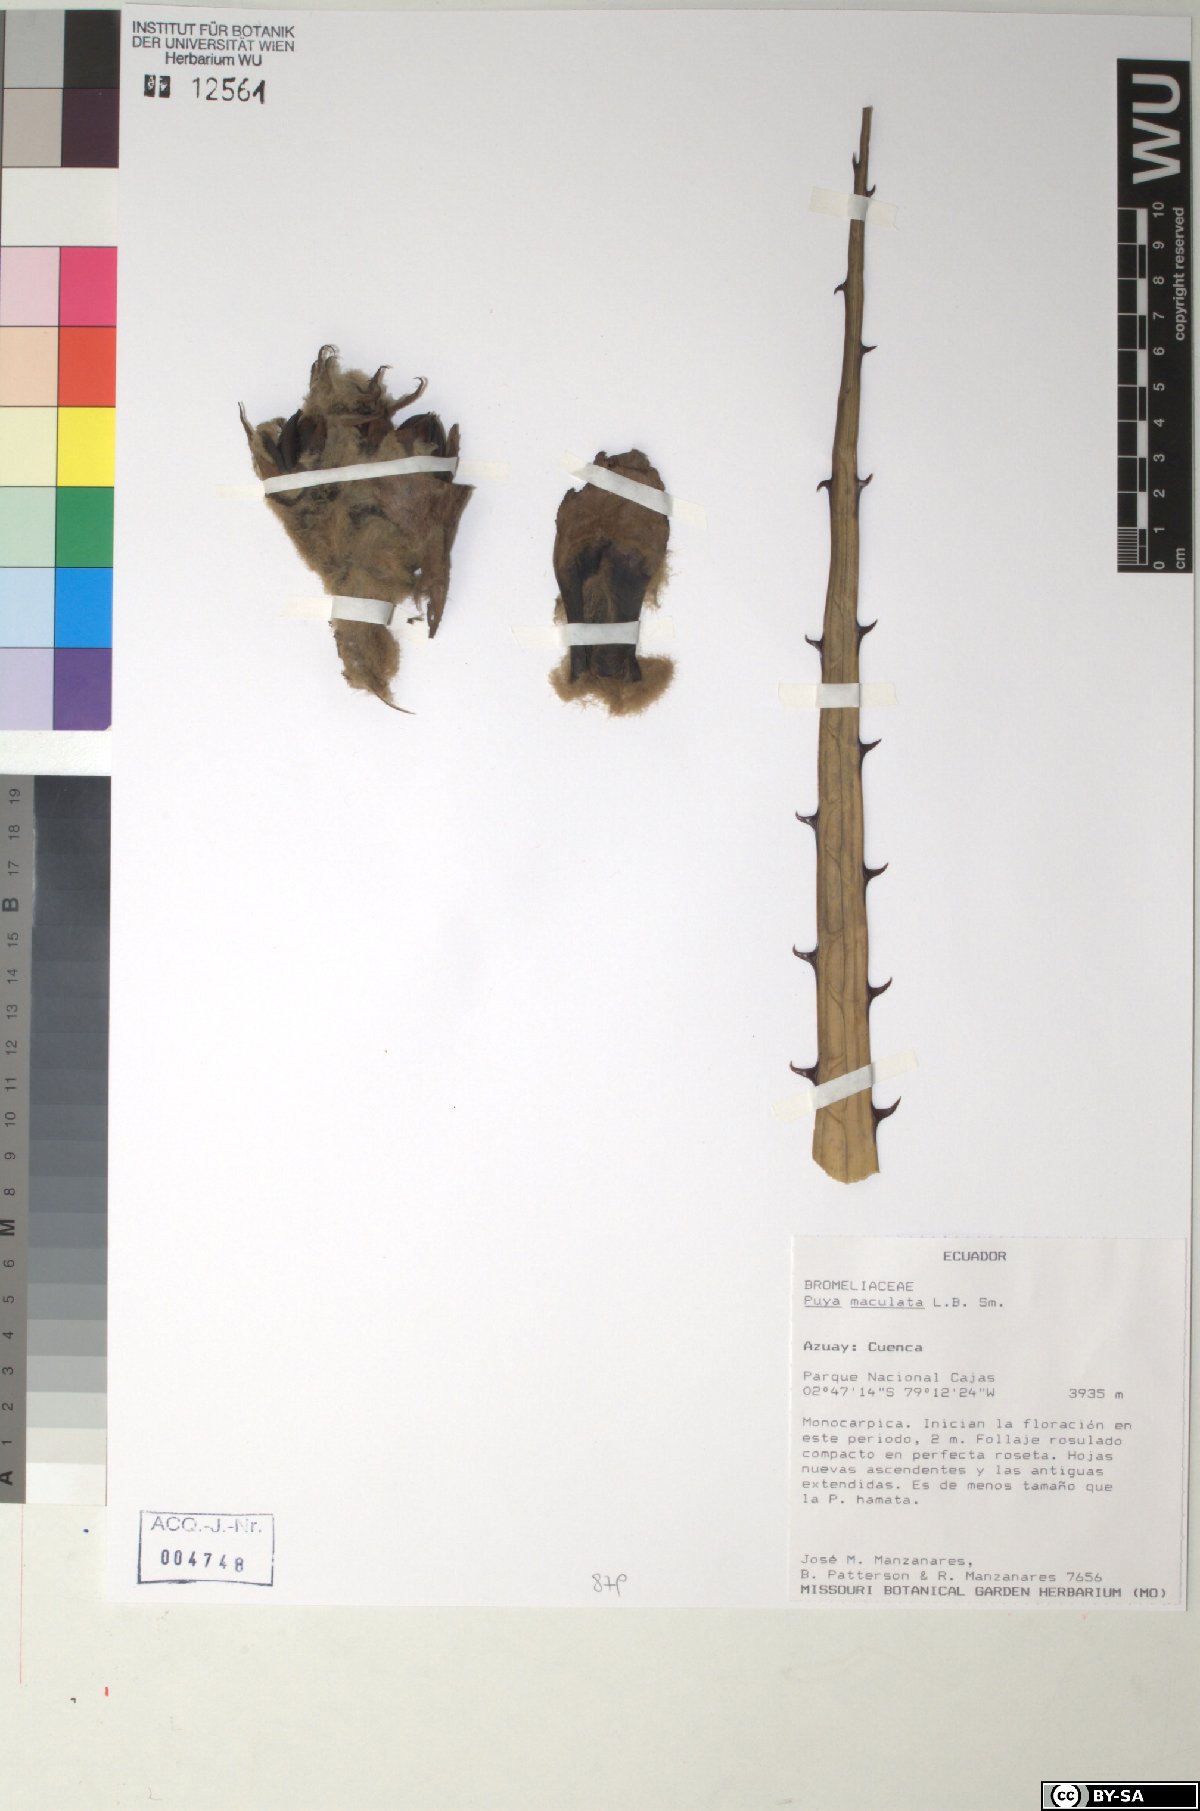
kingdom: Plantae
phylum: Tracheophyta
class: Liliopsida
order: Poales
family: Bromeliaceae
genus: Puya
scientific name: Puya maculata
